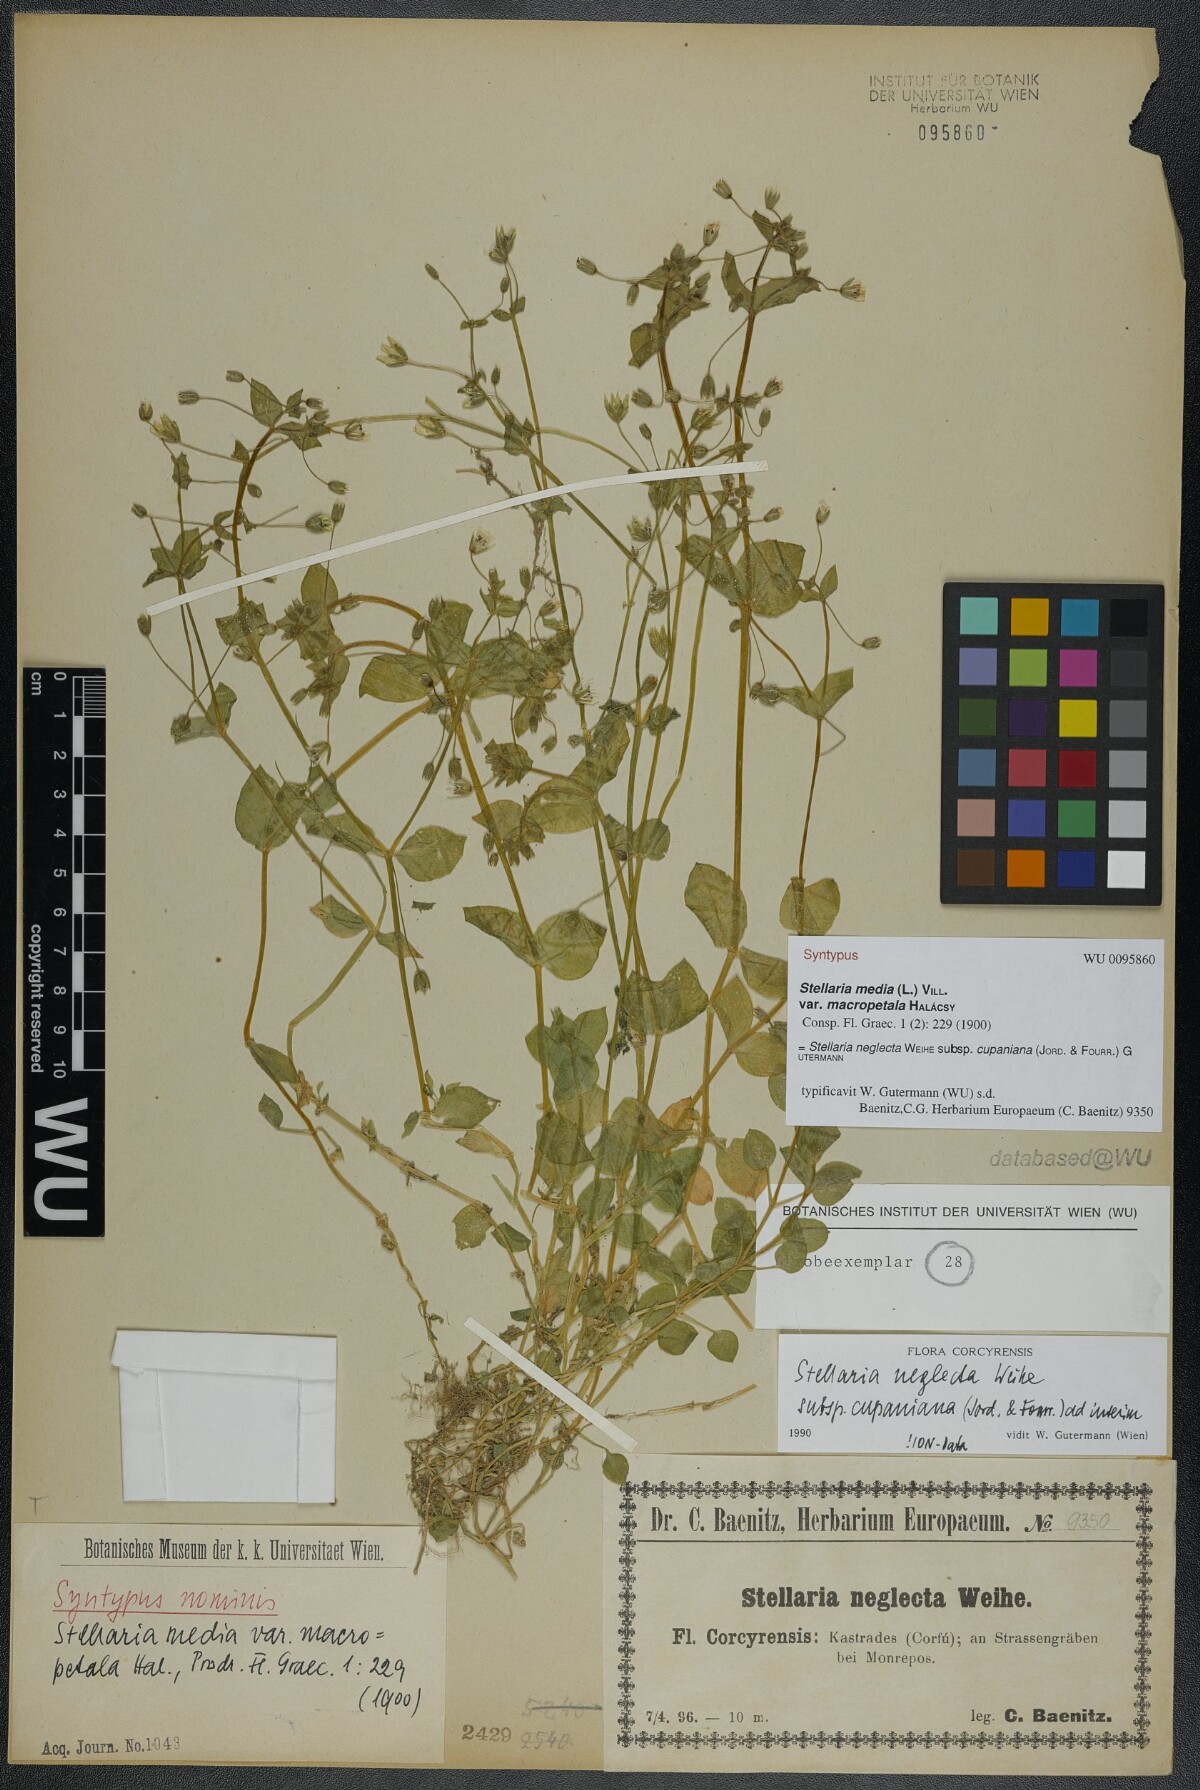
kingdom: Plantae
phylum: Tracheophyta
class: Magnoliopsida
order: Caryophyllales
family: Caryophyllaceae
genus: Stellaria
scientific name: Stellaria cupaniana
